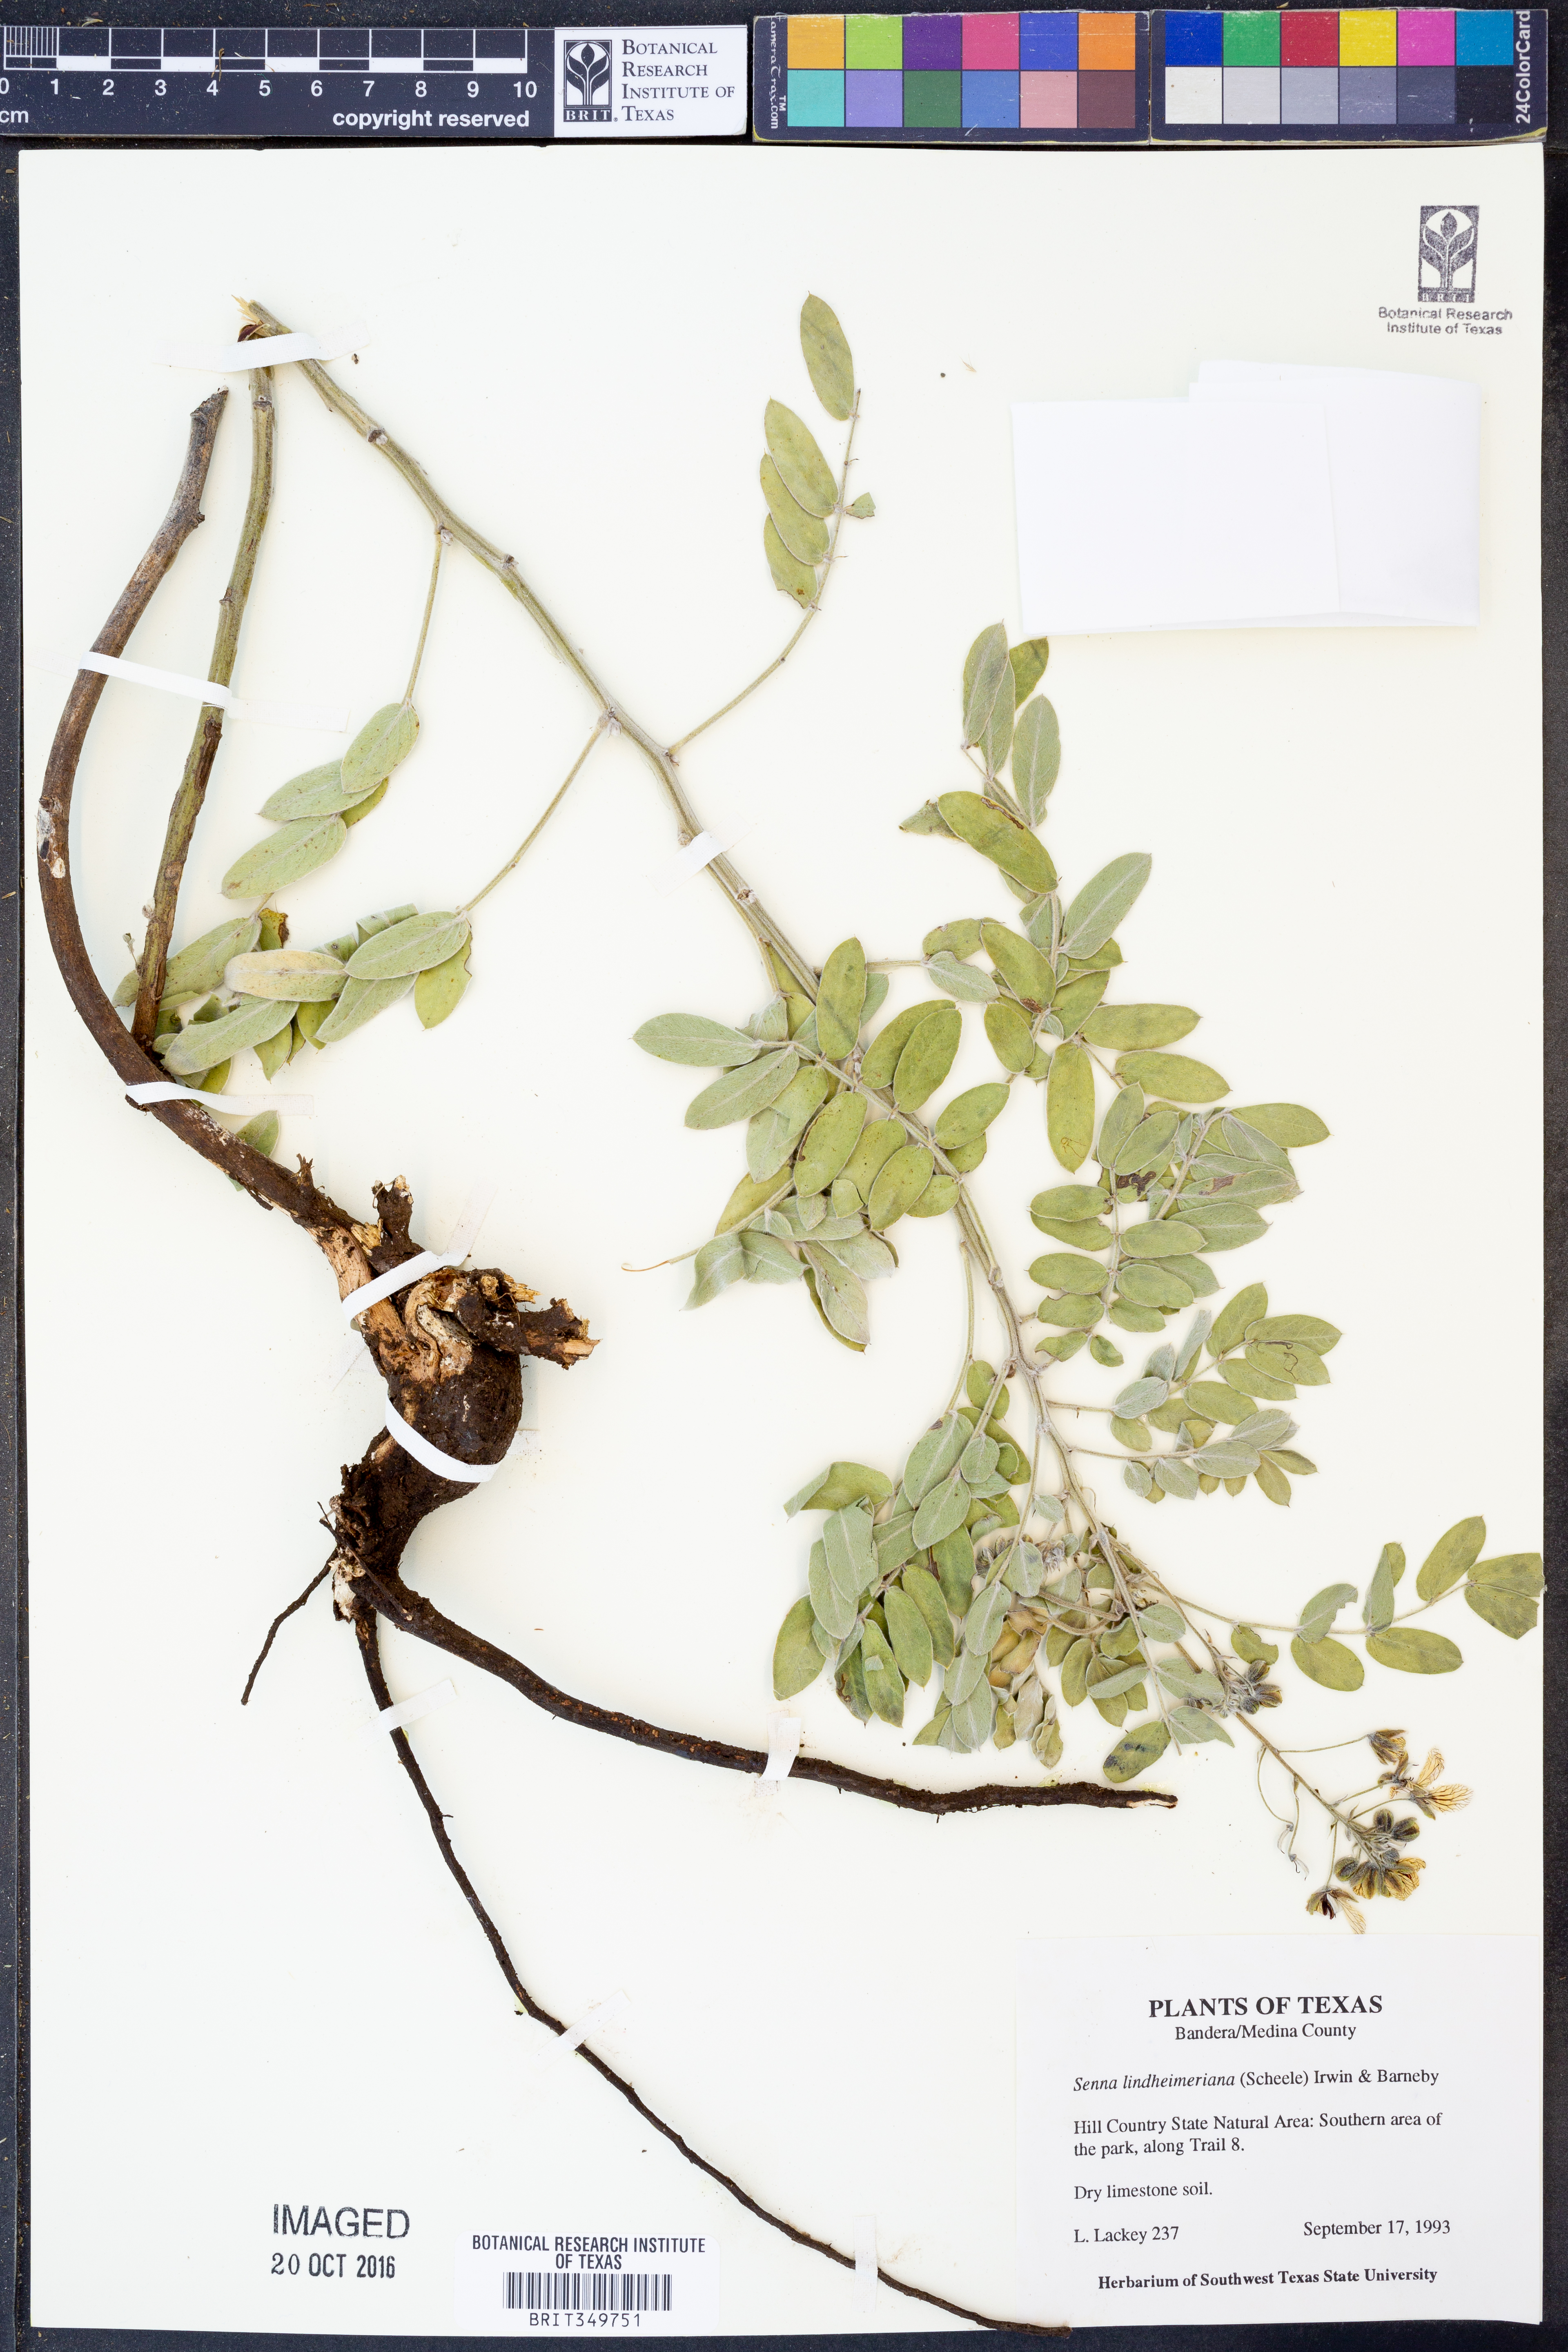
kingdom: Plantae
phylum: Tracheophyta
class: Magnoliopsida
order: Fabales
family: Fabaceae
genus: Senna
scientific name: Senna lindheimeriana
